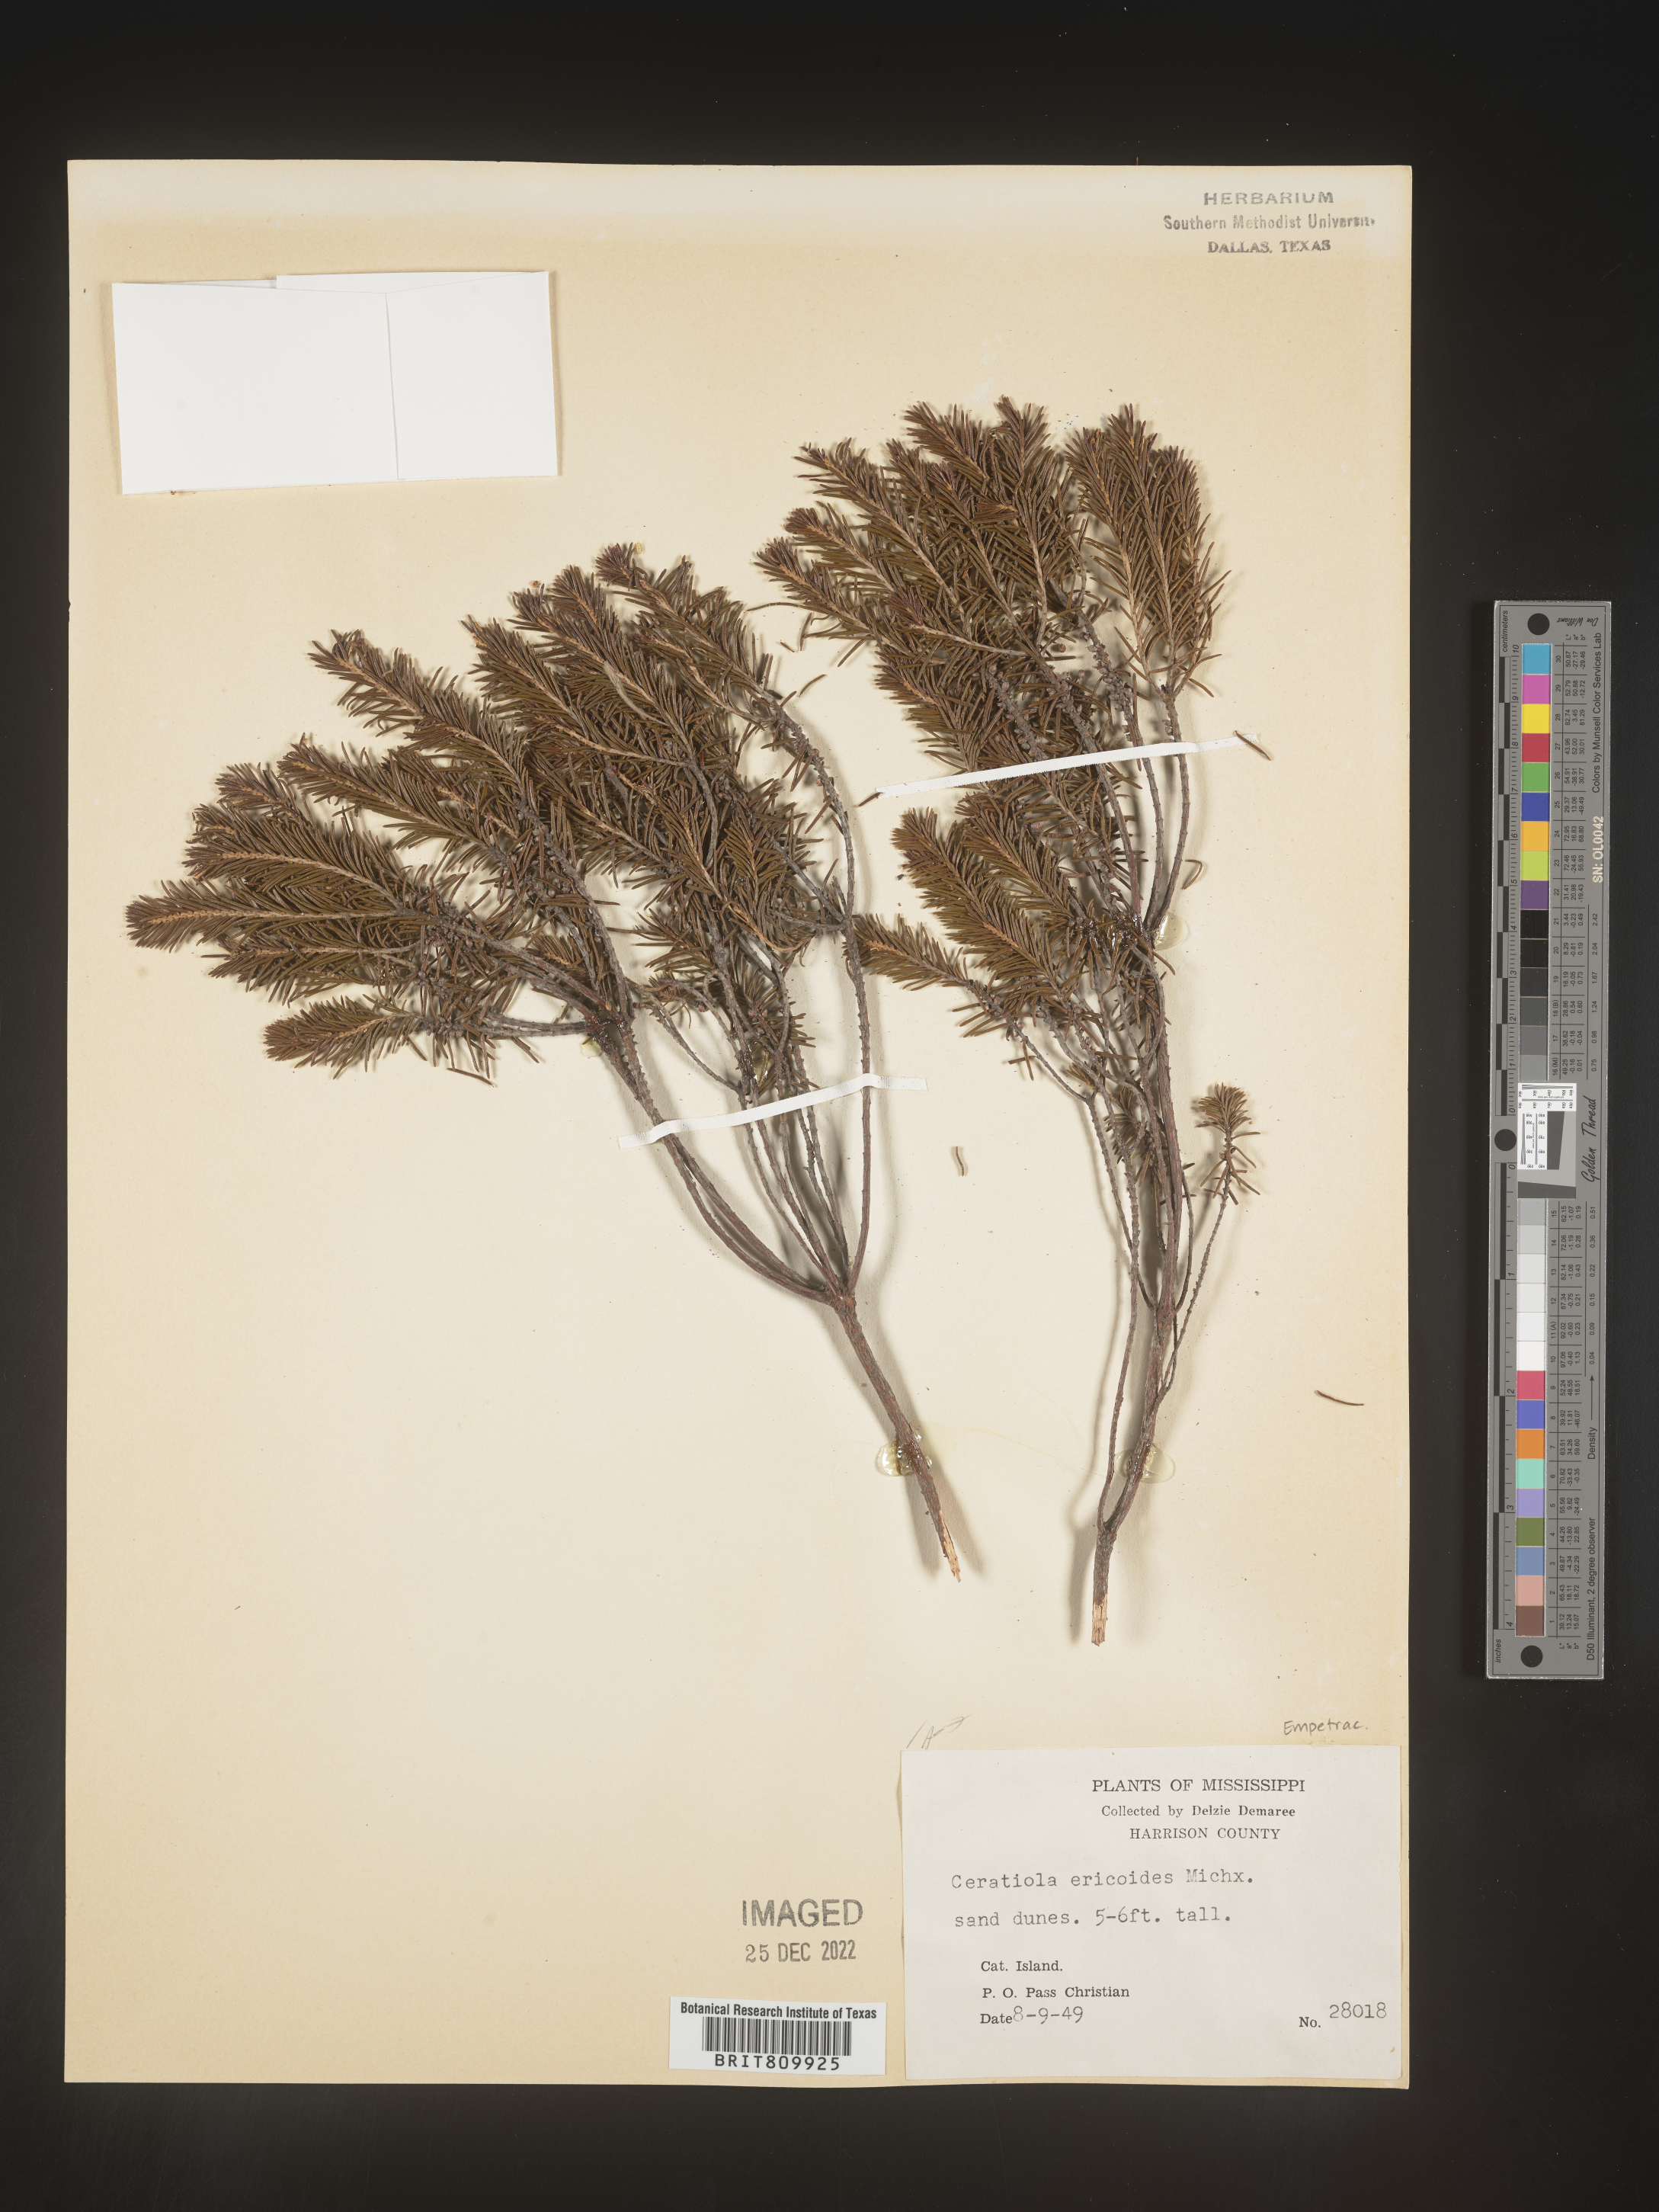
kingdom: Plantae
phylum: Tracheophyta
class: Magnoliopsida
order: Ericales
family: Ericaceae
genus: Ceratiola
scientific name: Ceratiola ericoides
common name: Sandhill-rosemary
